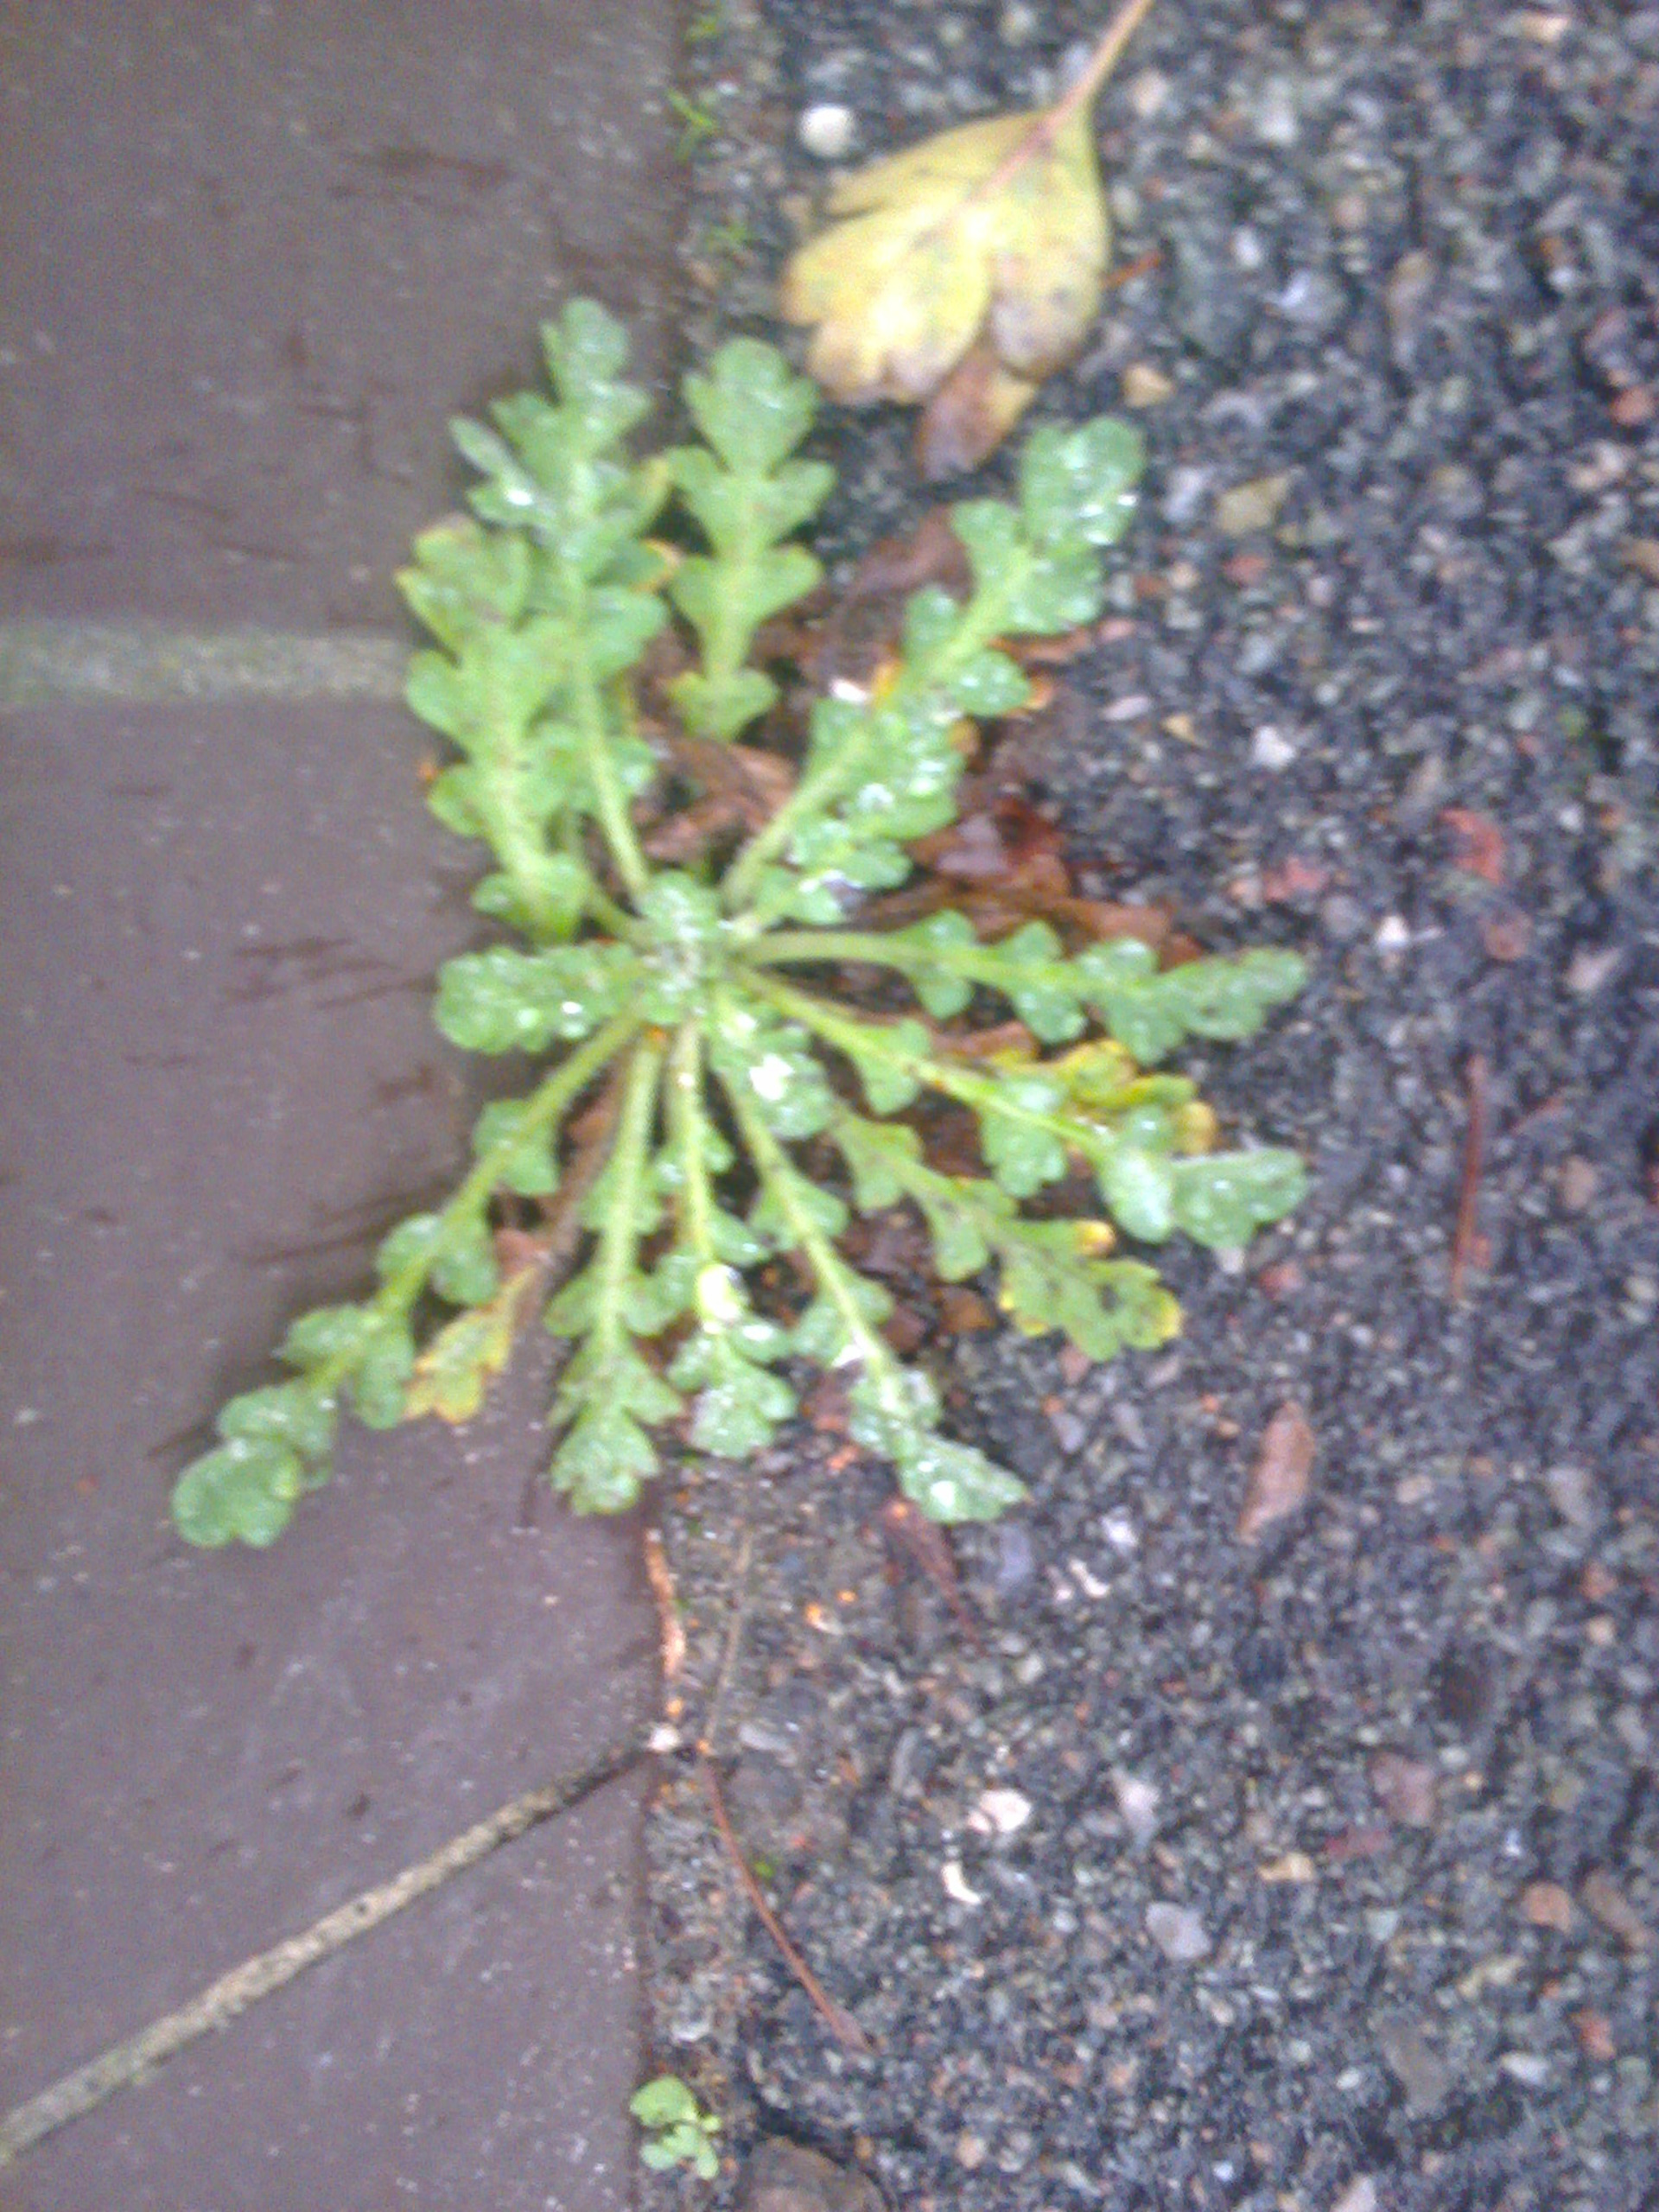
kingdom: Plantae
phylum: Tracheophyta
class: Magnoliopsida
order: Ranunculales
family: Papaveraceae
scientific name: Papaveraceae
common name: Valmuefamilien
